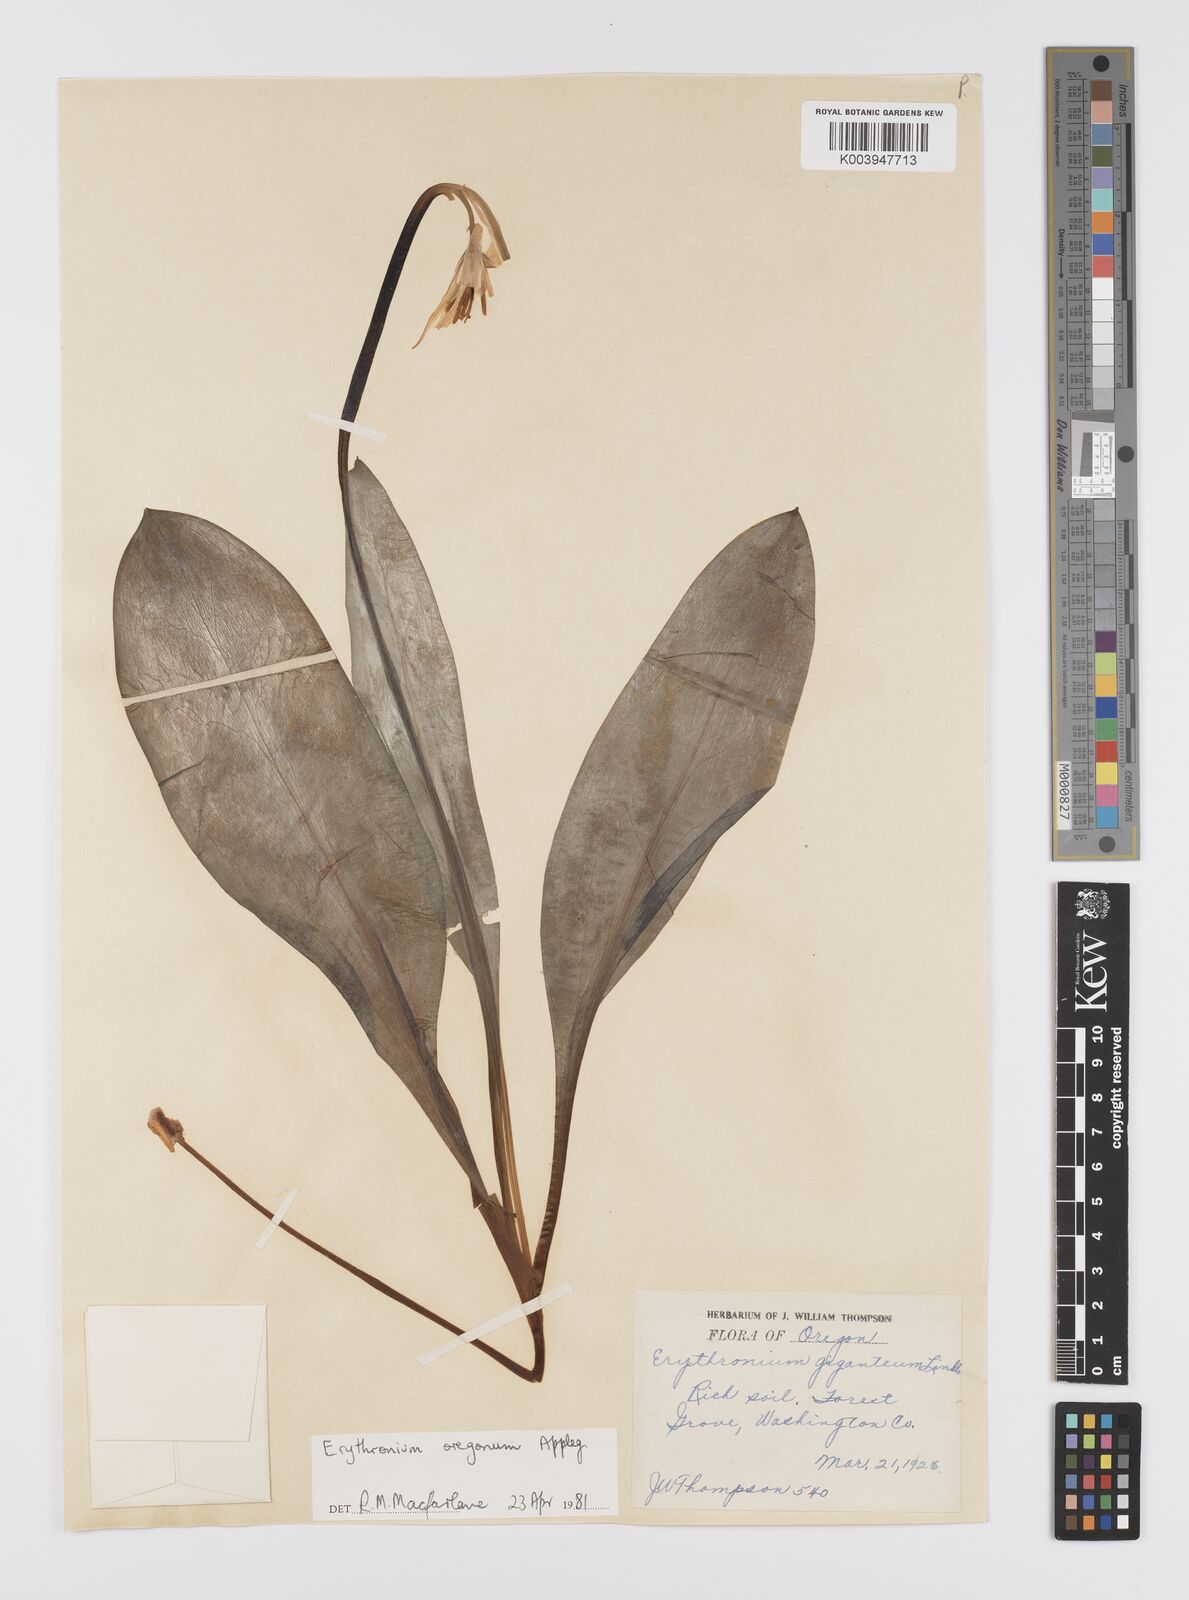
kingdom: Plantae
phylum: Tracheophyta
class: Liliopsida
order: Liliales
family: Liliaceae
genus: Erythronium
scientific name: Erythronium oregonum
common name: Giant adder's-tongue
